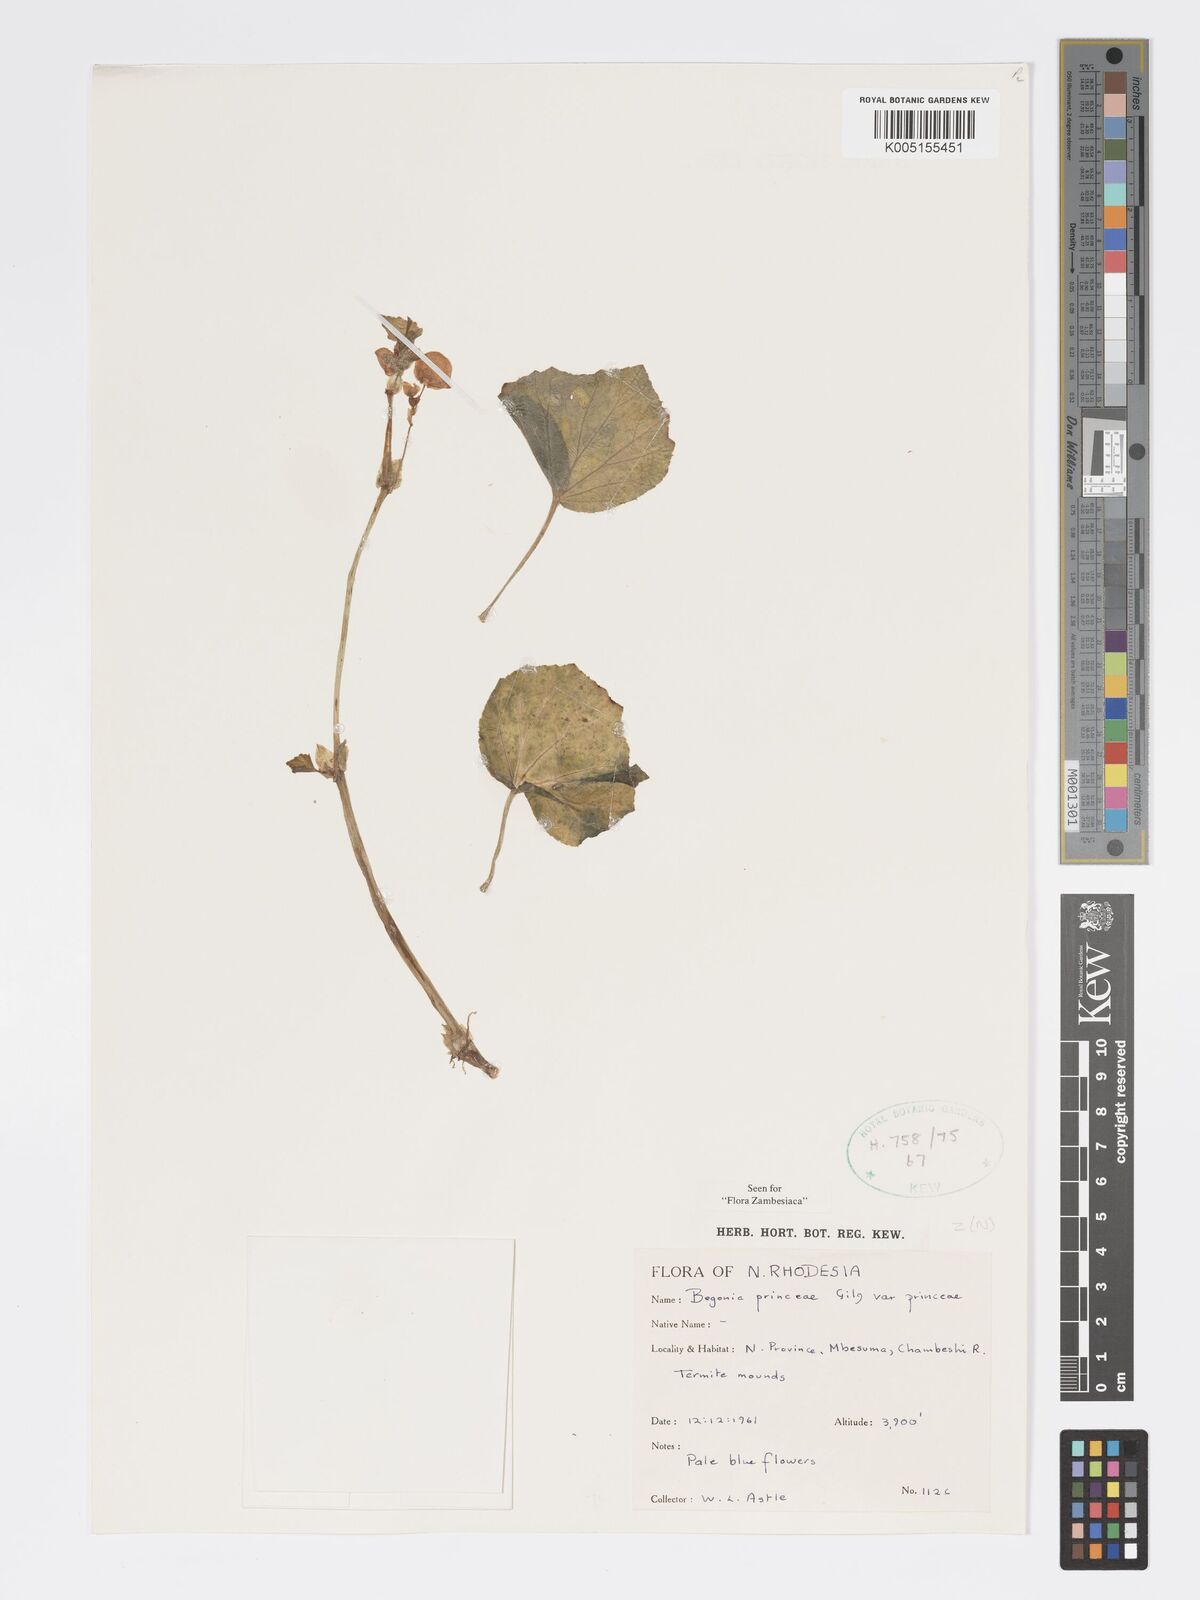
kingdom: Plantae
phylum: Tracheophyta
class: Magnoliopsida
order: Cucurbitales
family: Begoniaceae
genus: Begonia
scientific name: Begonia princeae
